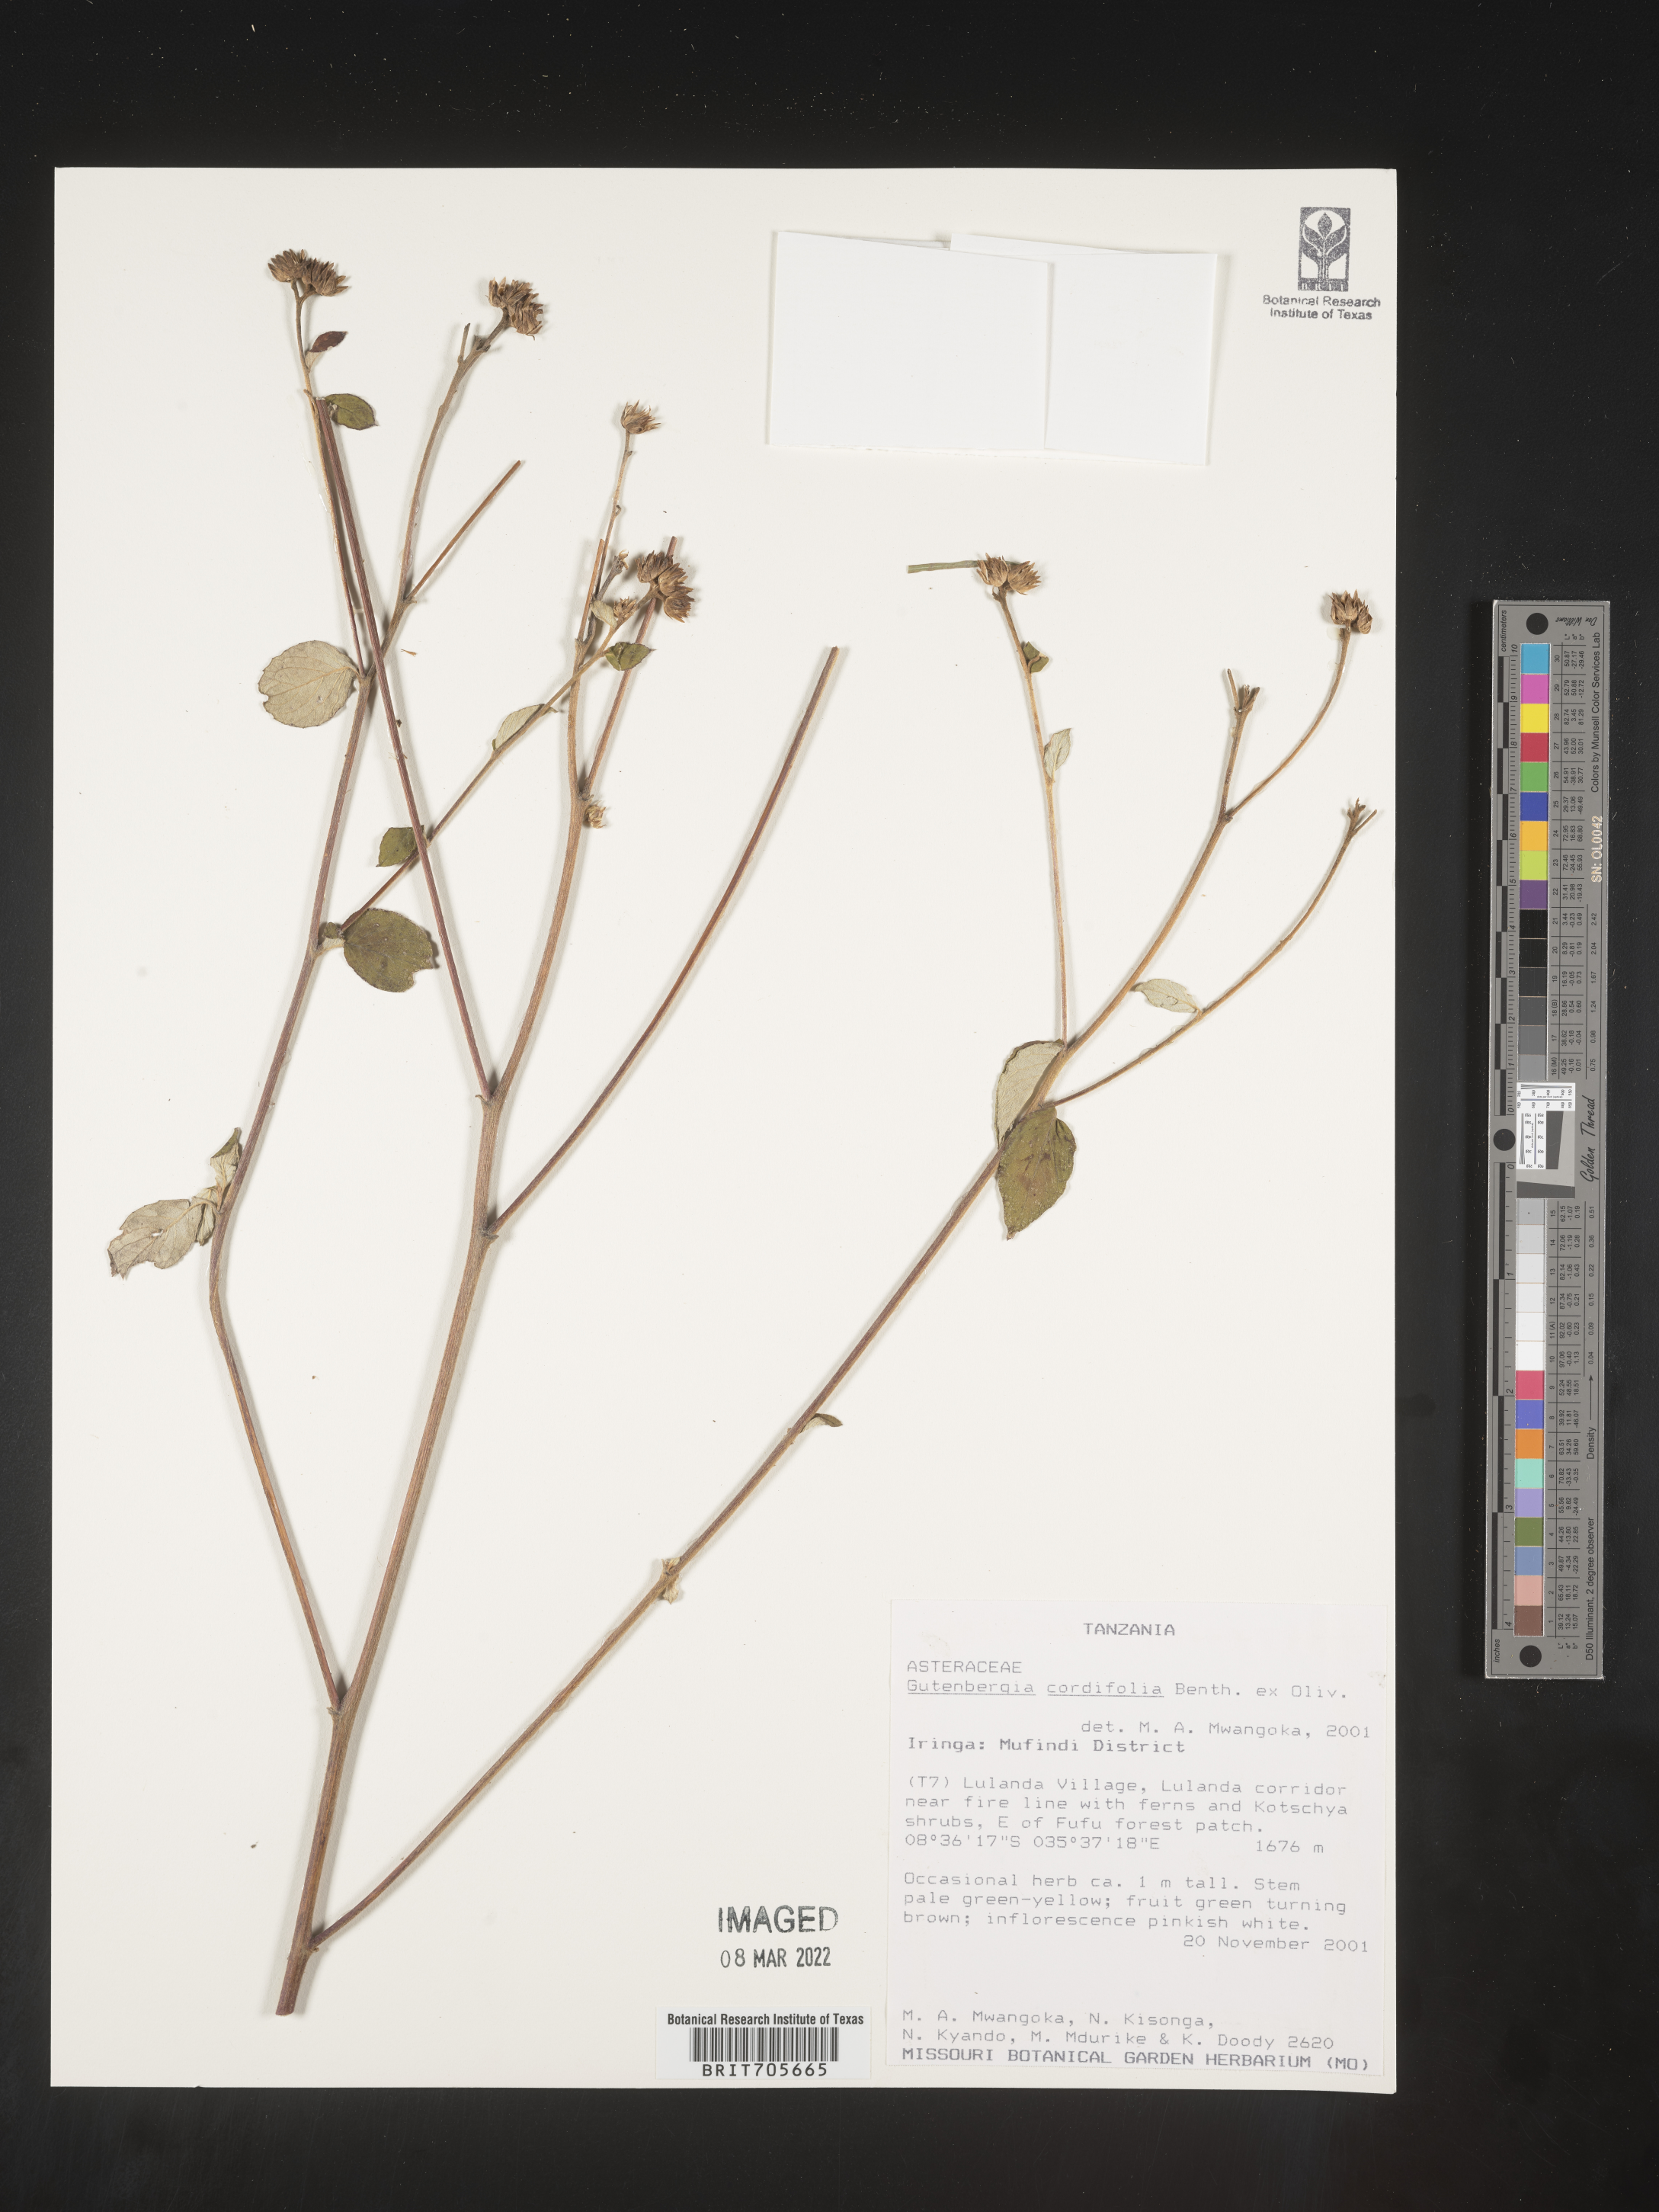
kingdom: Plantae
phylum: Tracheophyta
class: Magnoliopsida
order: Asterales
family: Asteraceae
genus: Gutenbergia
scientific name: Gutenbergia
